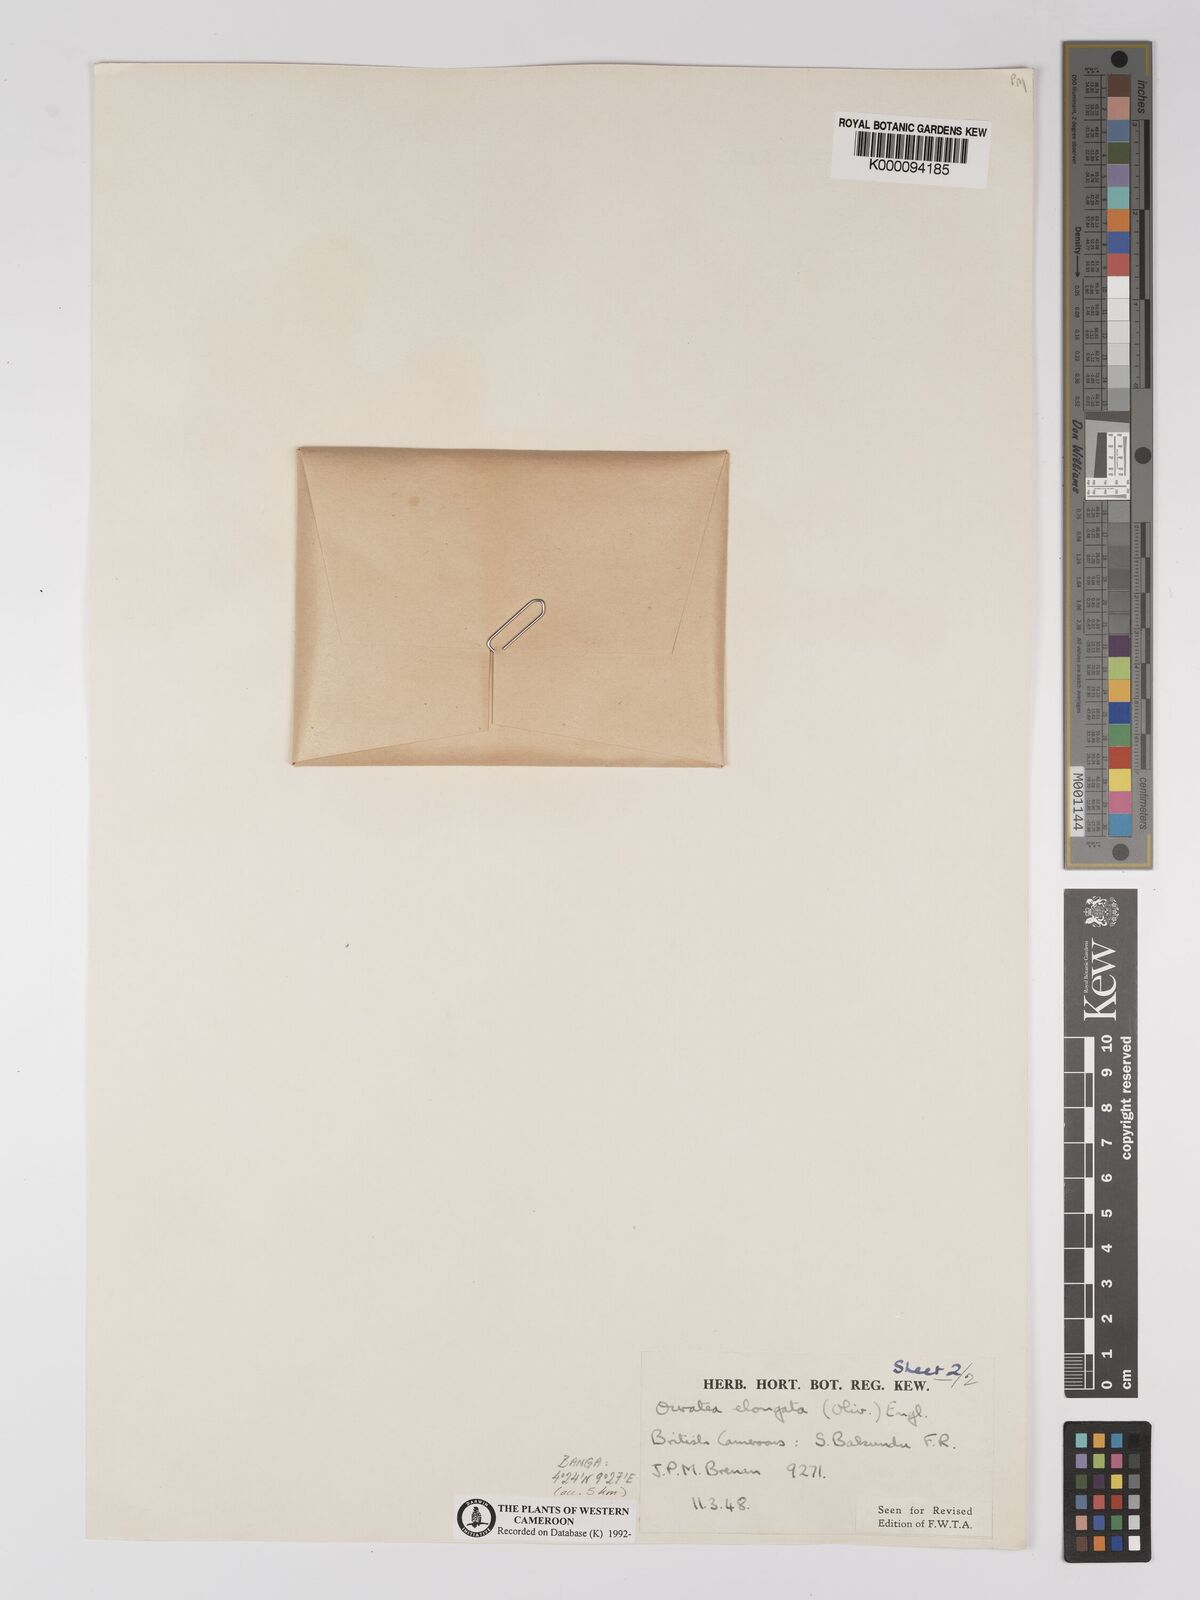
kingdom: Plantae
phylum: Tracheophyta
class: Magnoliopsida
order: Malpighiales
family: Ochnaceae
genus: Gomphia
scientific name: Gomphia elongata
